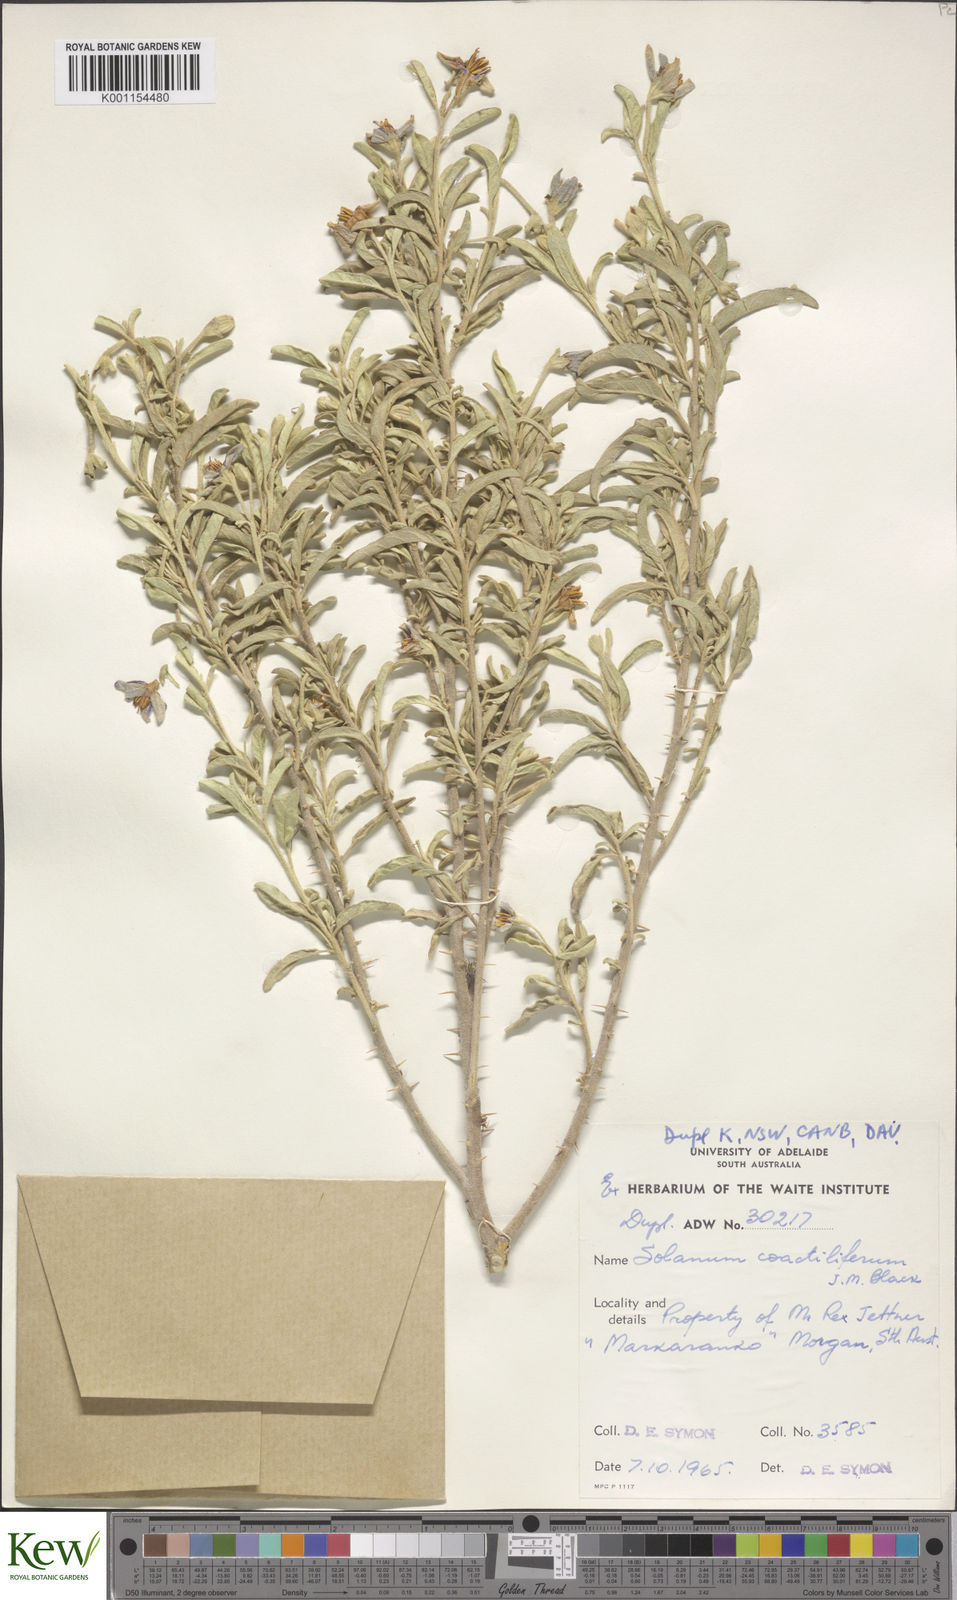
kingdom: Plantae
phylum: Tracheophyta
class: Magnoliopsida
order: Solanales
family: Solanaceae
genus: Solanum
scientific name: Solanum coactiliferum
